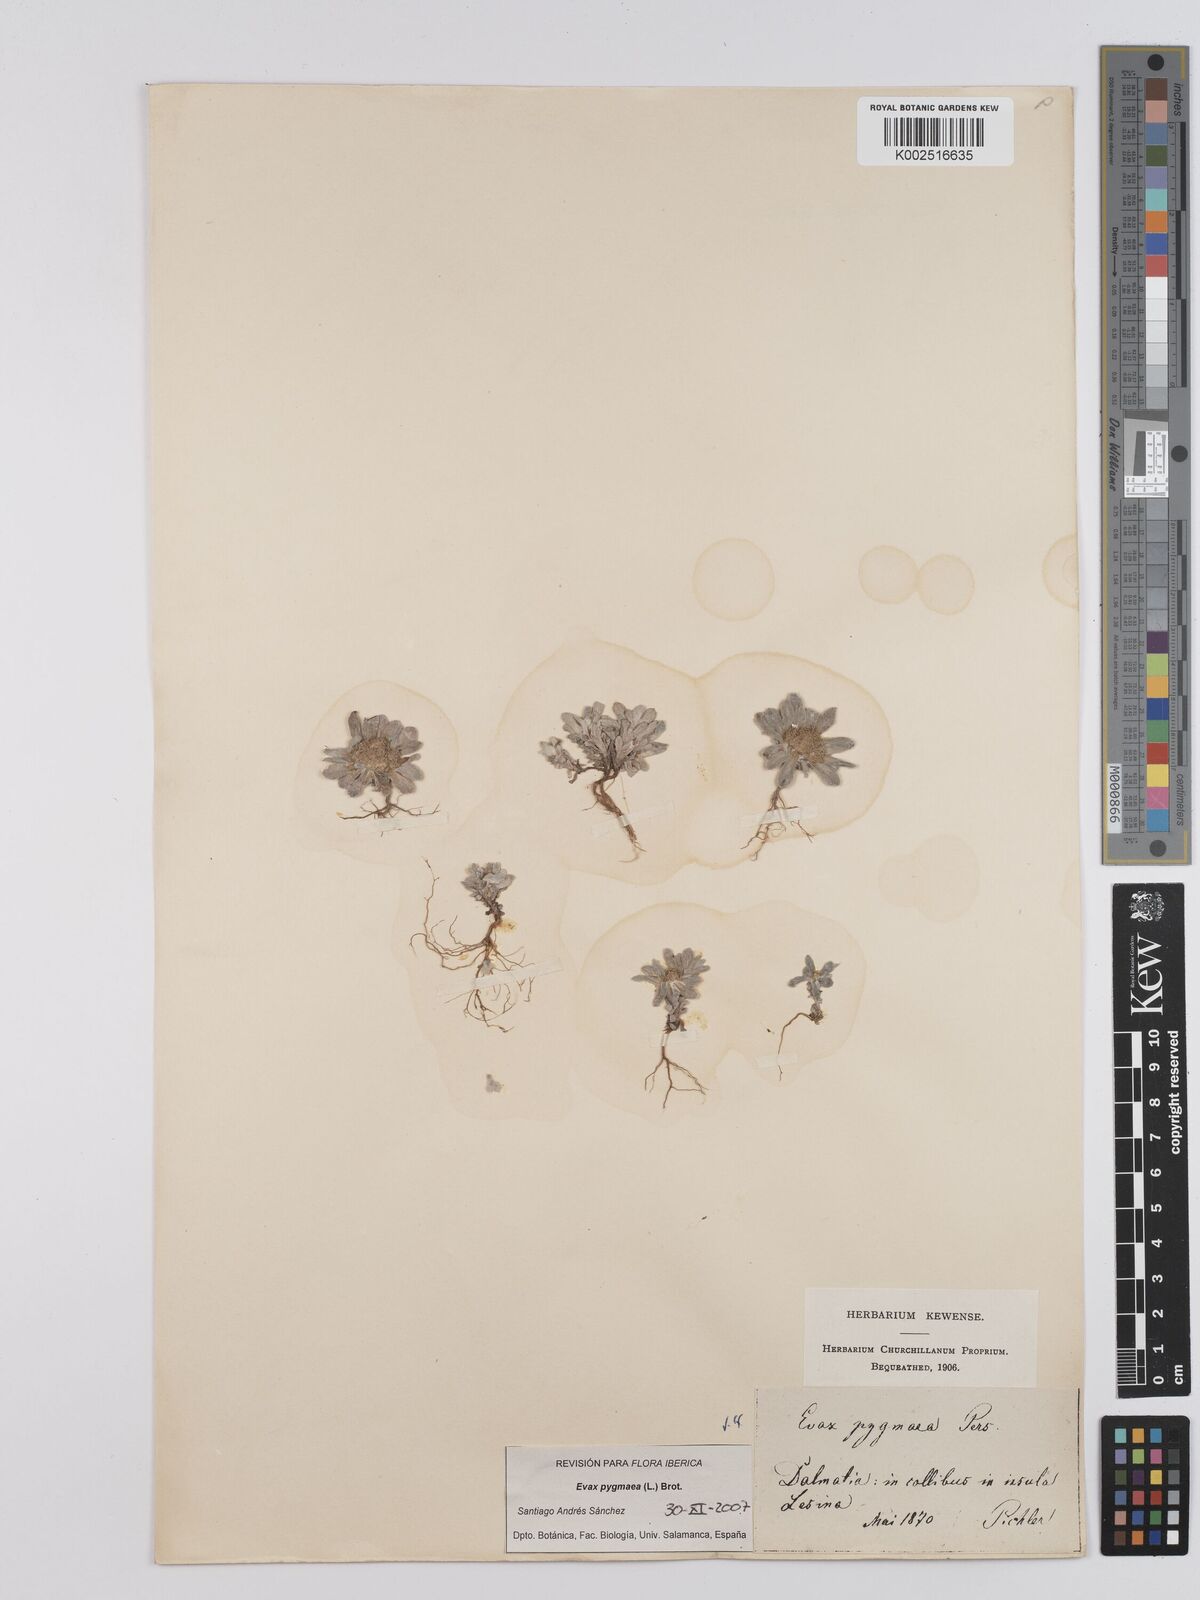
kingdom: Plantae
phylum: Tracheophyta
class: Magnoliopsida
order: Asterales
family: Asteraceae
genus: Filago
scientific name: Filago pygmaea
